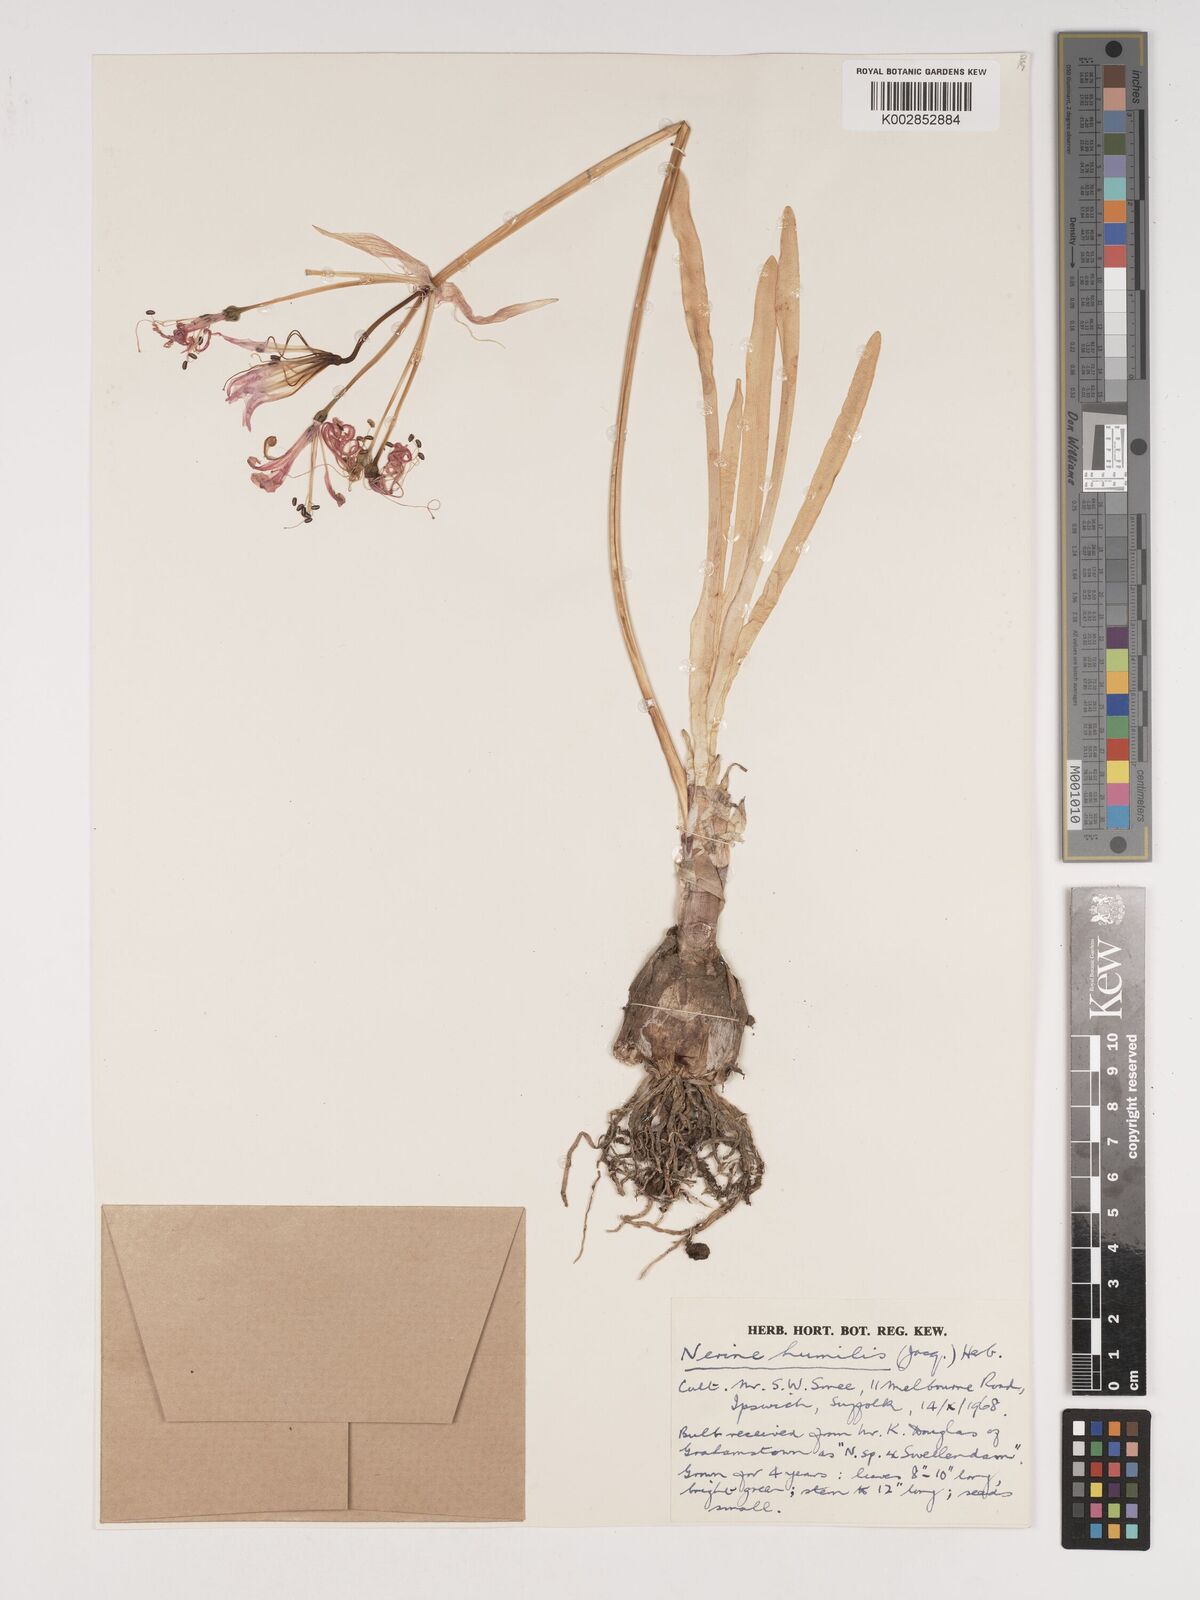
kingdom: Plantae
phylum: Tracheophyta
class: Liliopsida
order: Asparagales
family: Amaryllidaceae
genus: Nerine
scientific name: Nerine humilis
